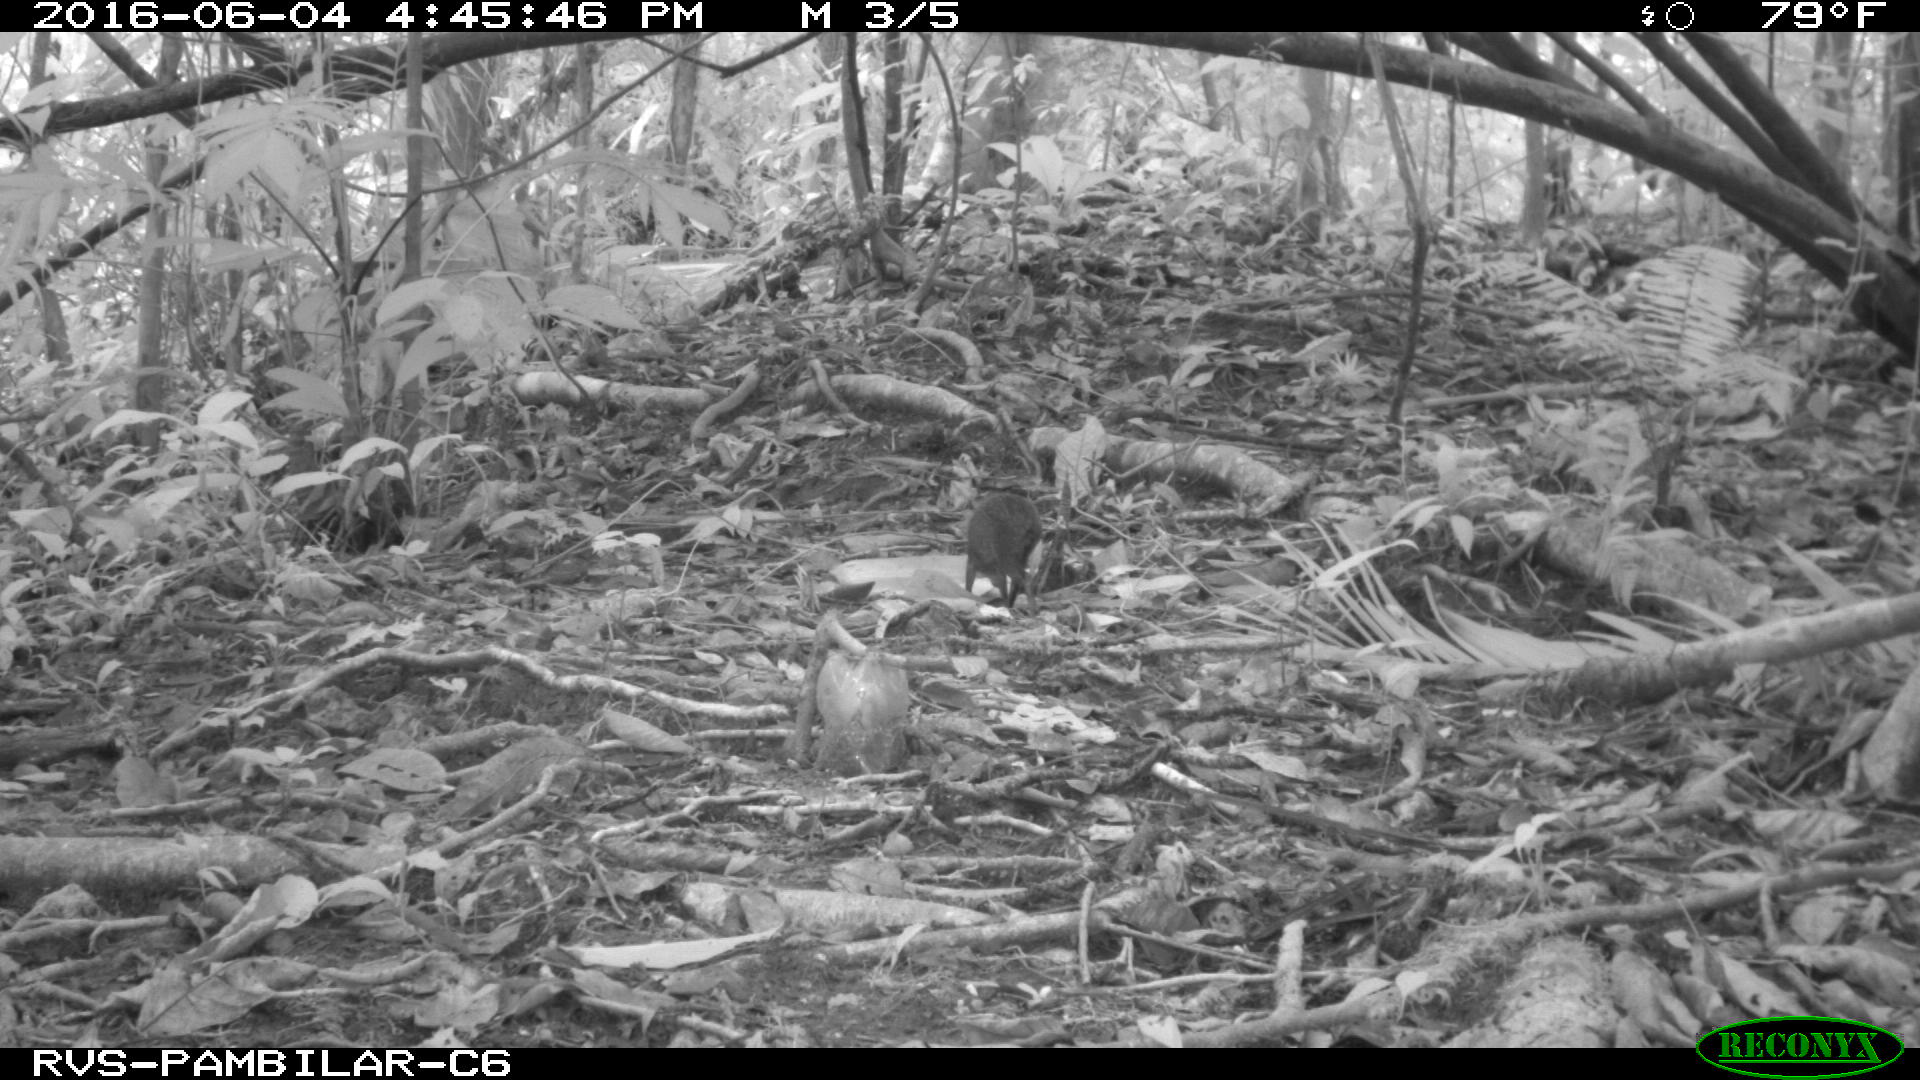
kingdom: Animalia
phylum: Chordata
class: Mammalia
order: Rodentia
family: Dasyproctidae
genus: Dasyprocta
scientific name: Dasyprocta punctata
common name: Central american agouti
